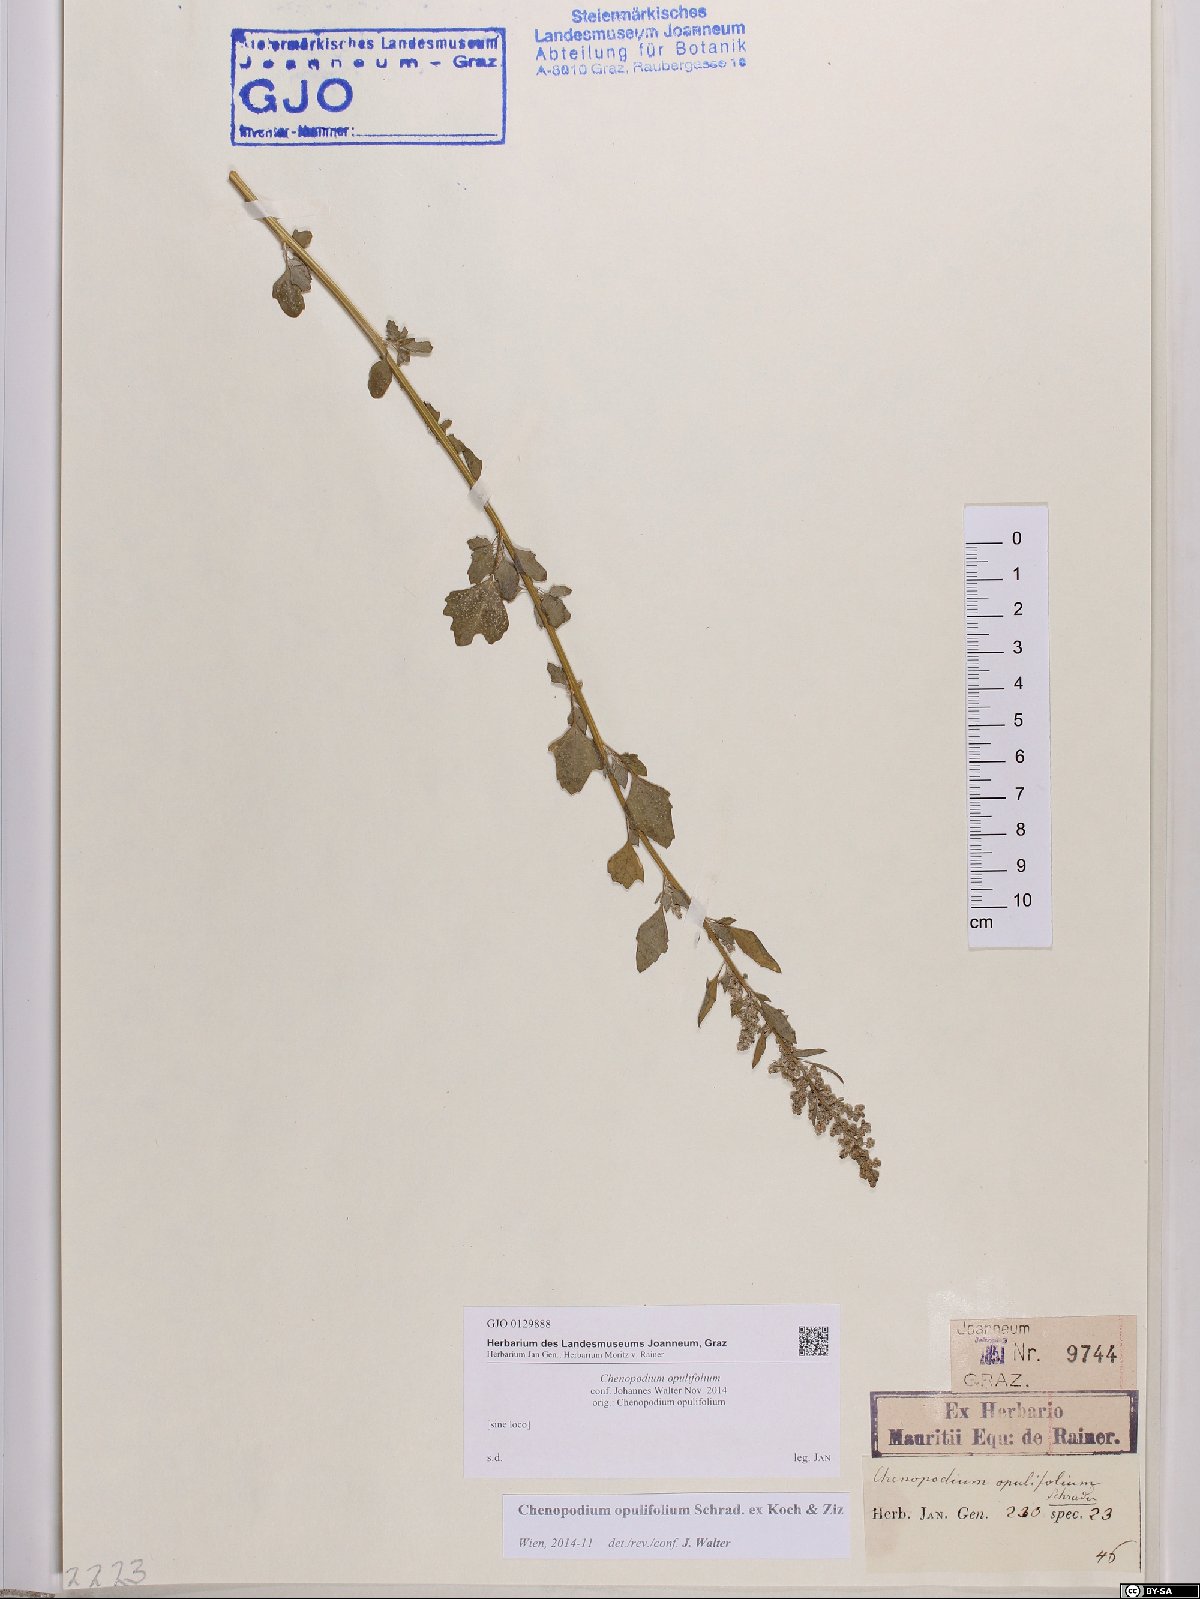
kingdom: Plantae
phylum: Tracheophyta
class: Magnoliopsida
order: Caryophyllales
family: Amaranthaceae
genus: Chenopodium
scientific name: Chenopodium opulifolium
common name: Grey goosefoot
